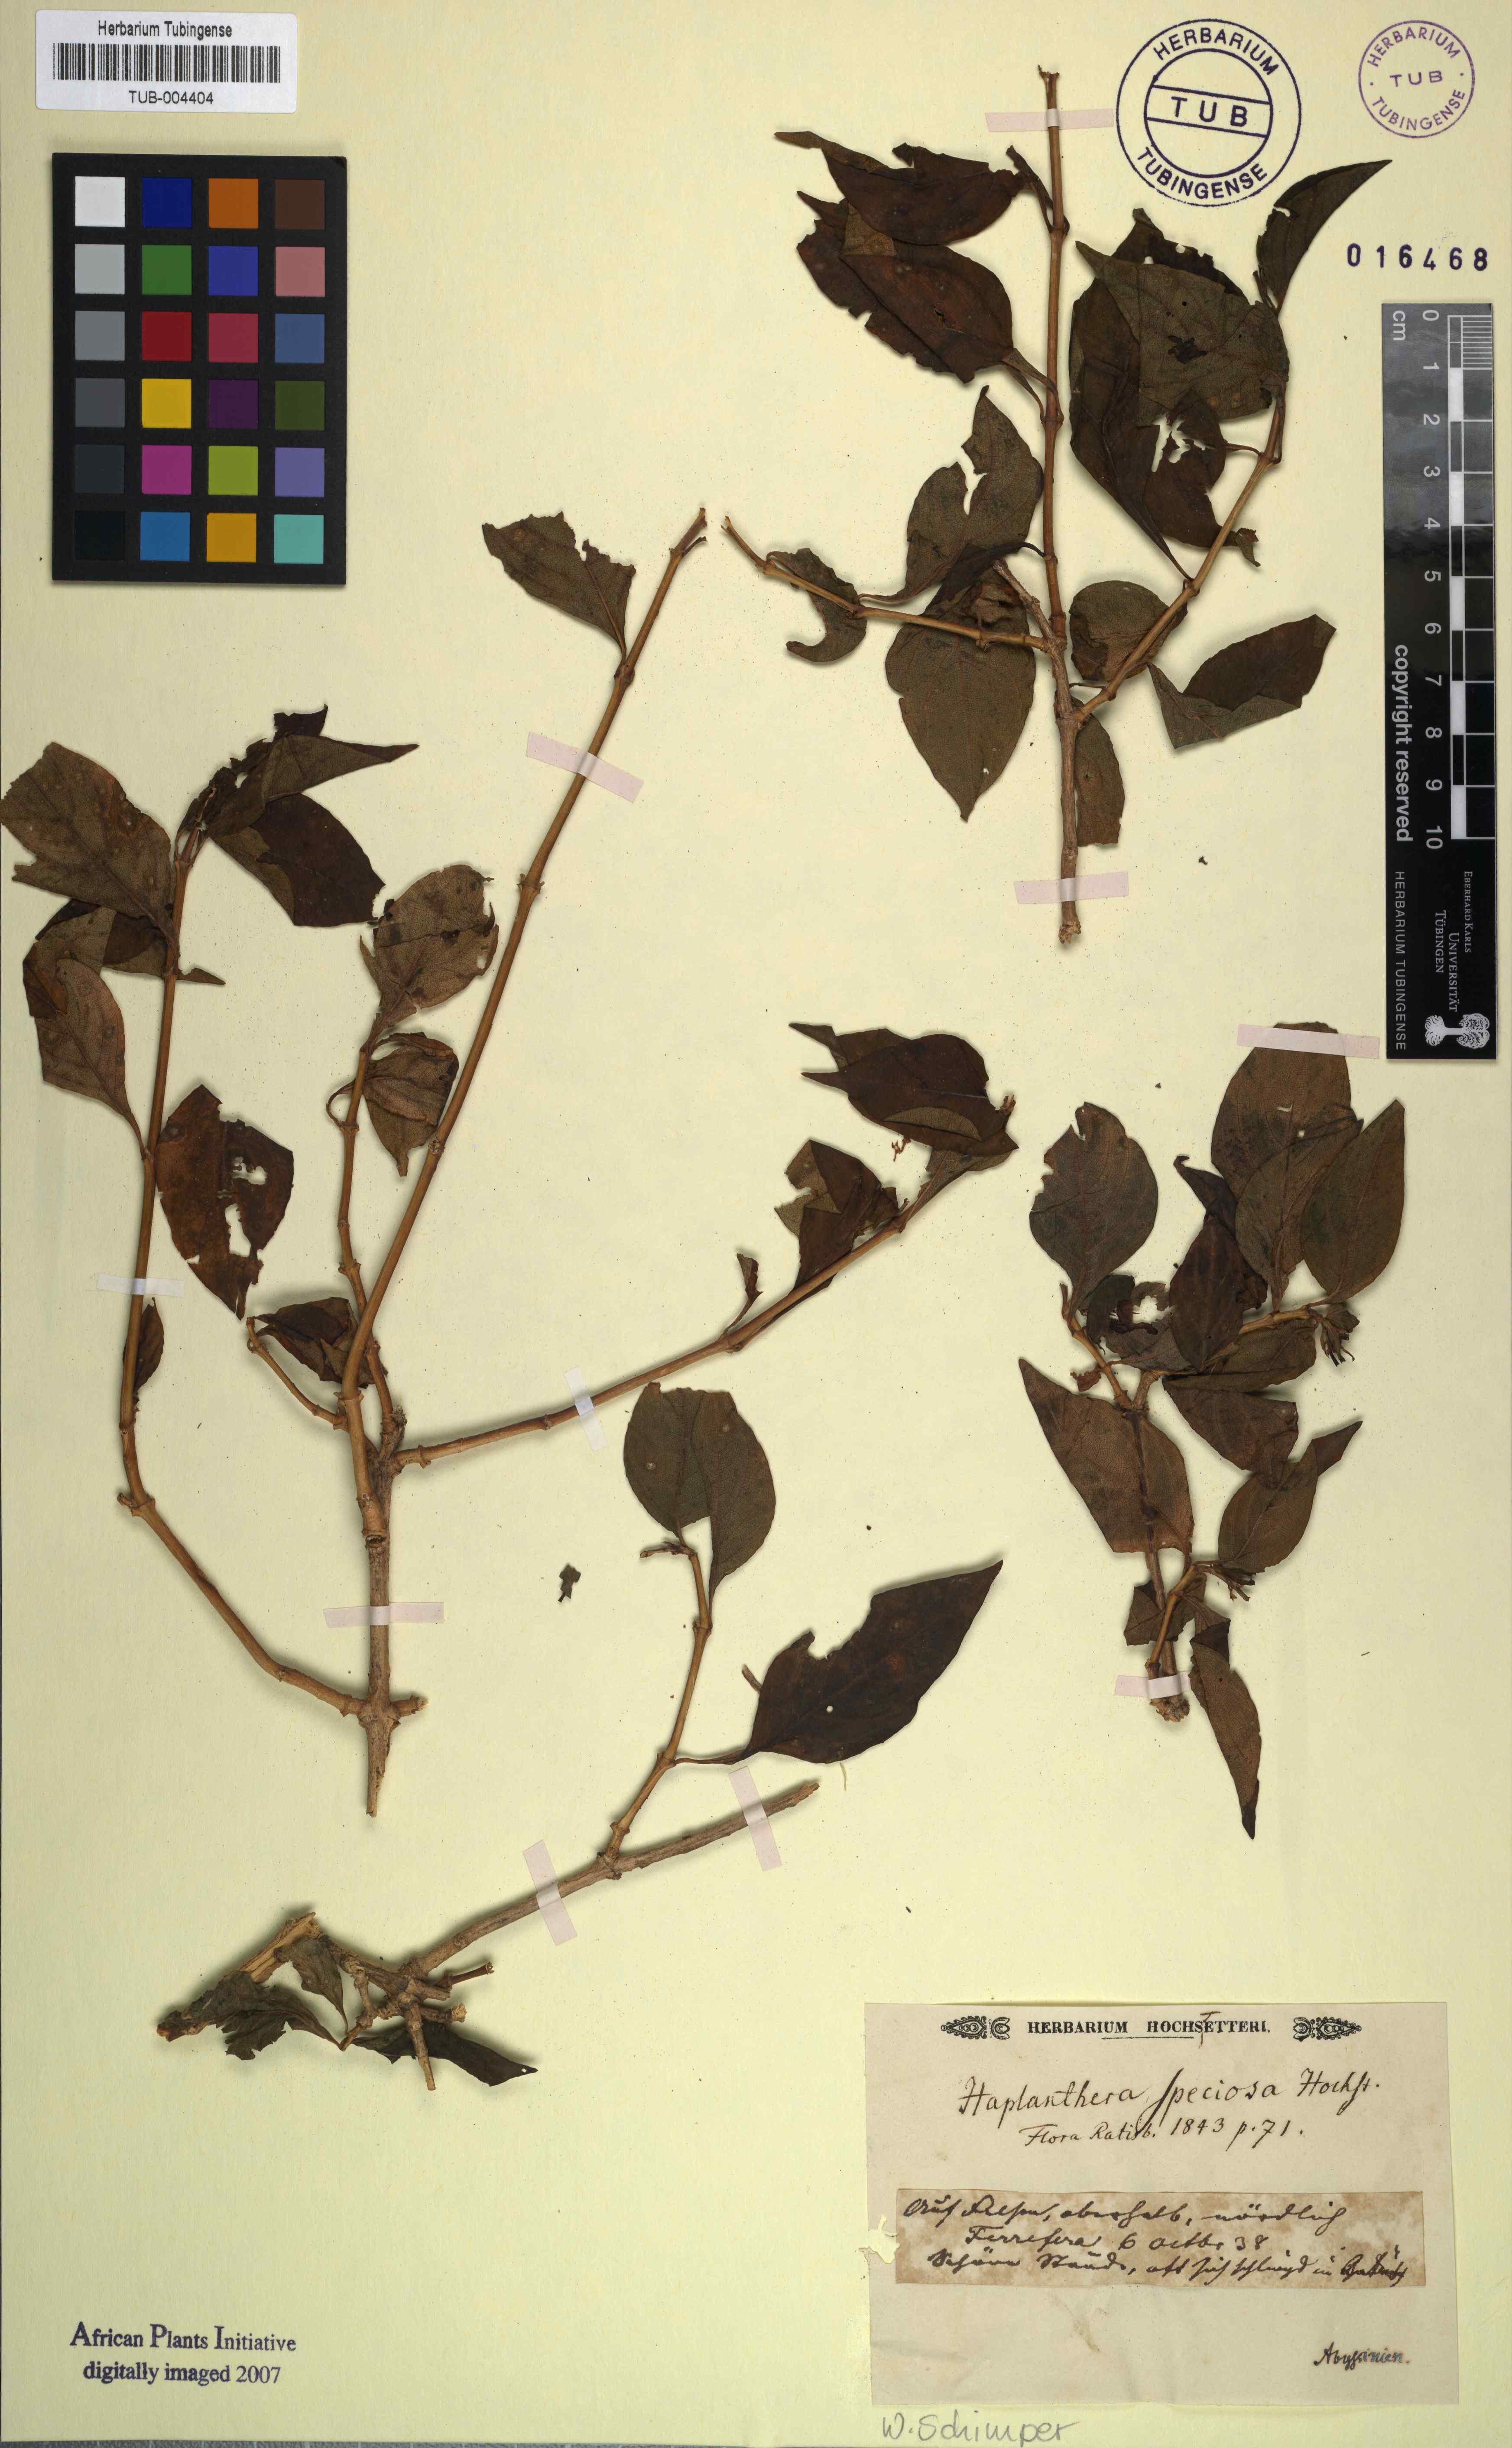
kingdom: Plantae
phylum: Tracheophyta
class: Magnoliopsida
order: Lamiales
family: Acanthaceae
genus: Ruttya
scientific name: Ruttya speciosa
